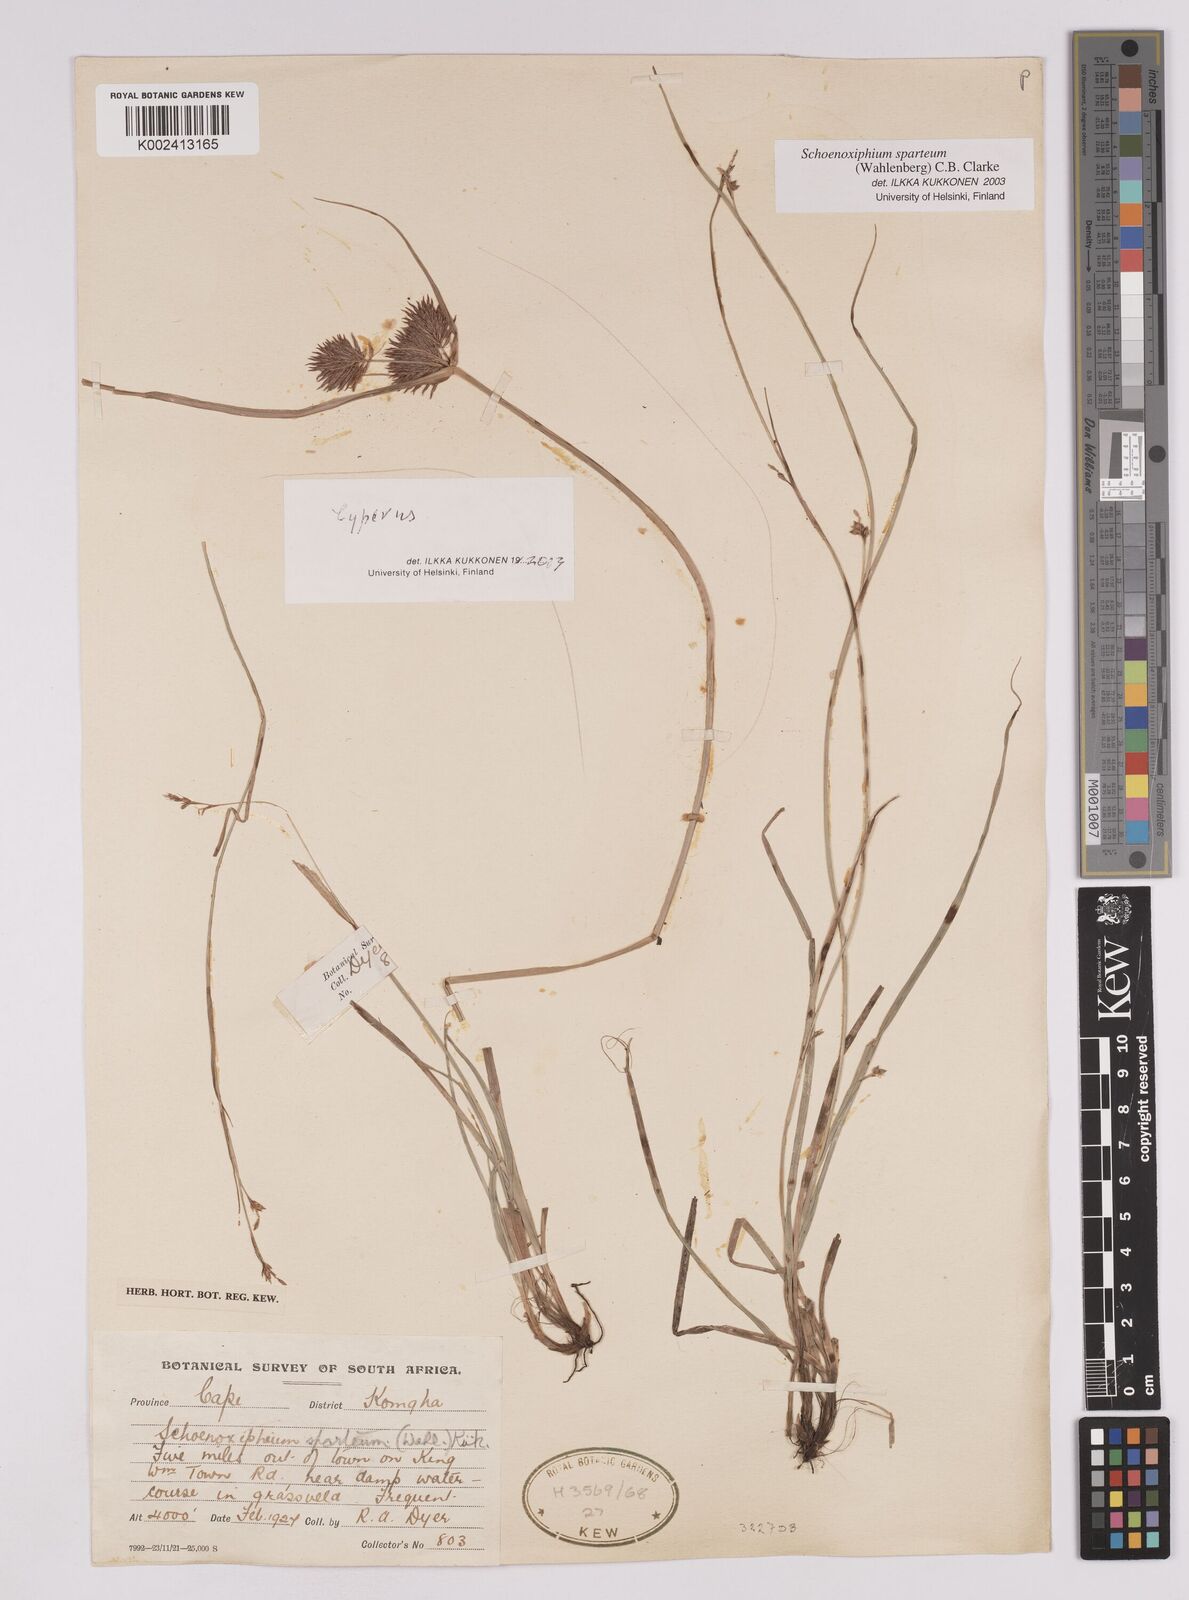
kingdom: Plantae
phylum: Tracheophyta
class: Liliopsida
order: Poales
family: Cyperaceae
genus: Carex
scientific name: Carex spartea
